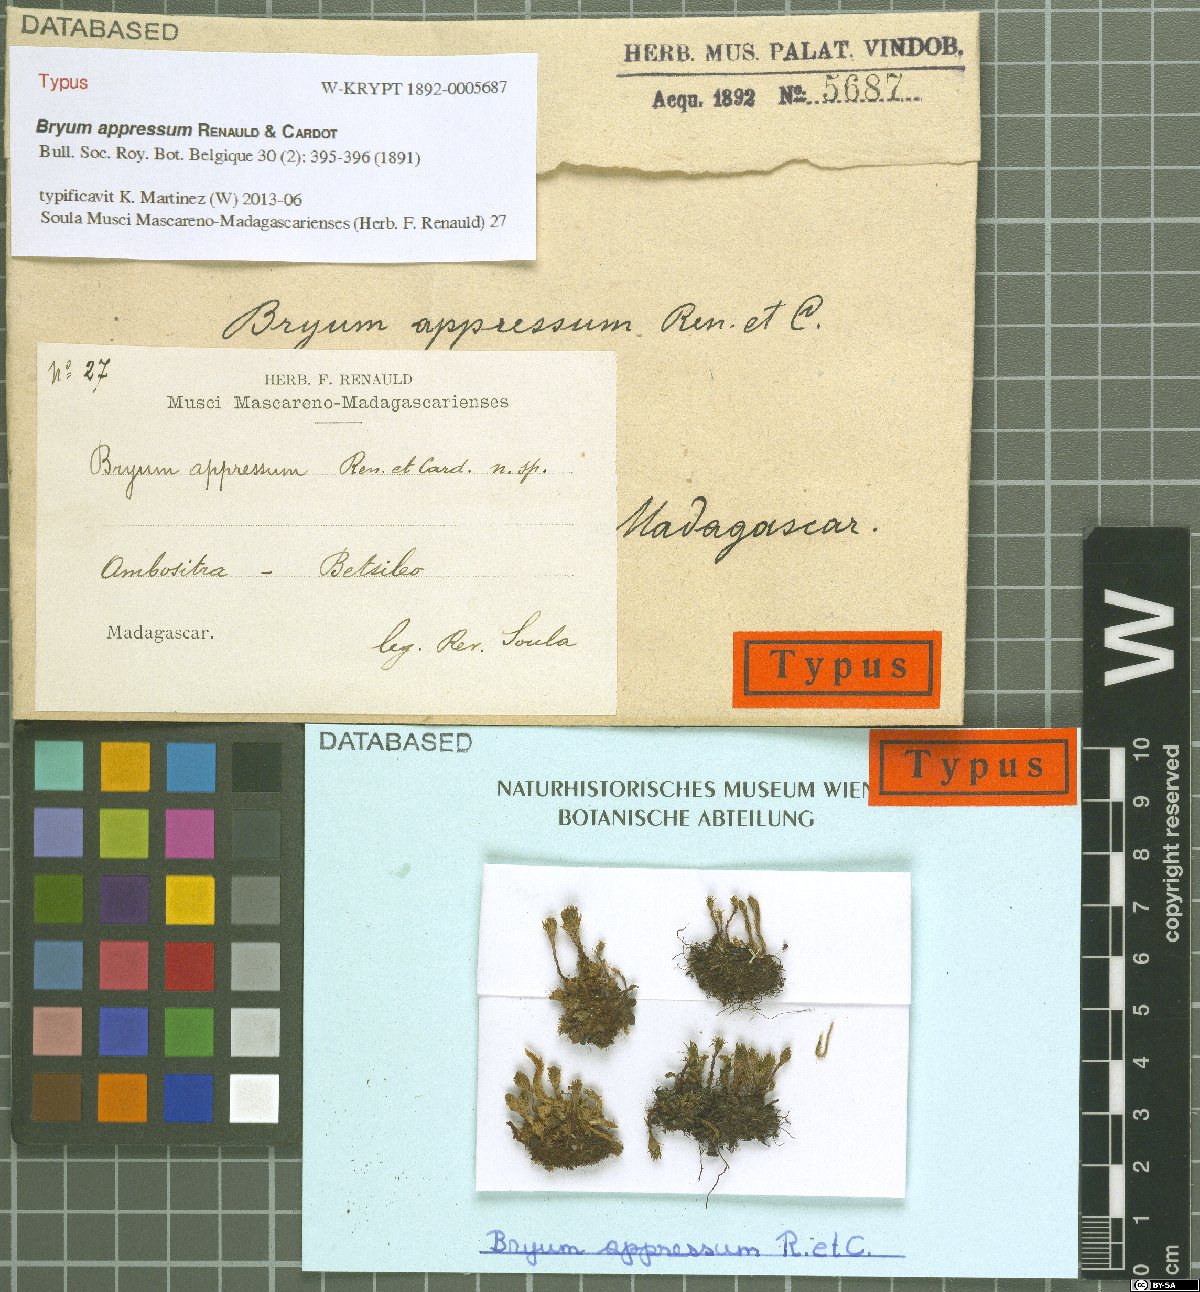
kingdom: Plantae
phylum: Bryophyta
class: Bryopsida
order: Bryales
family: Bryaceae
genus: Rosulabryum
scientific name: Rosulabryum appressum
